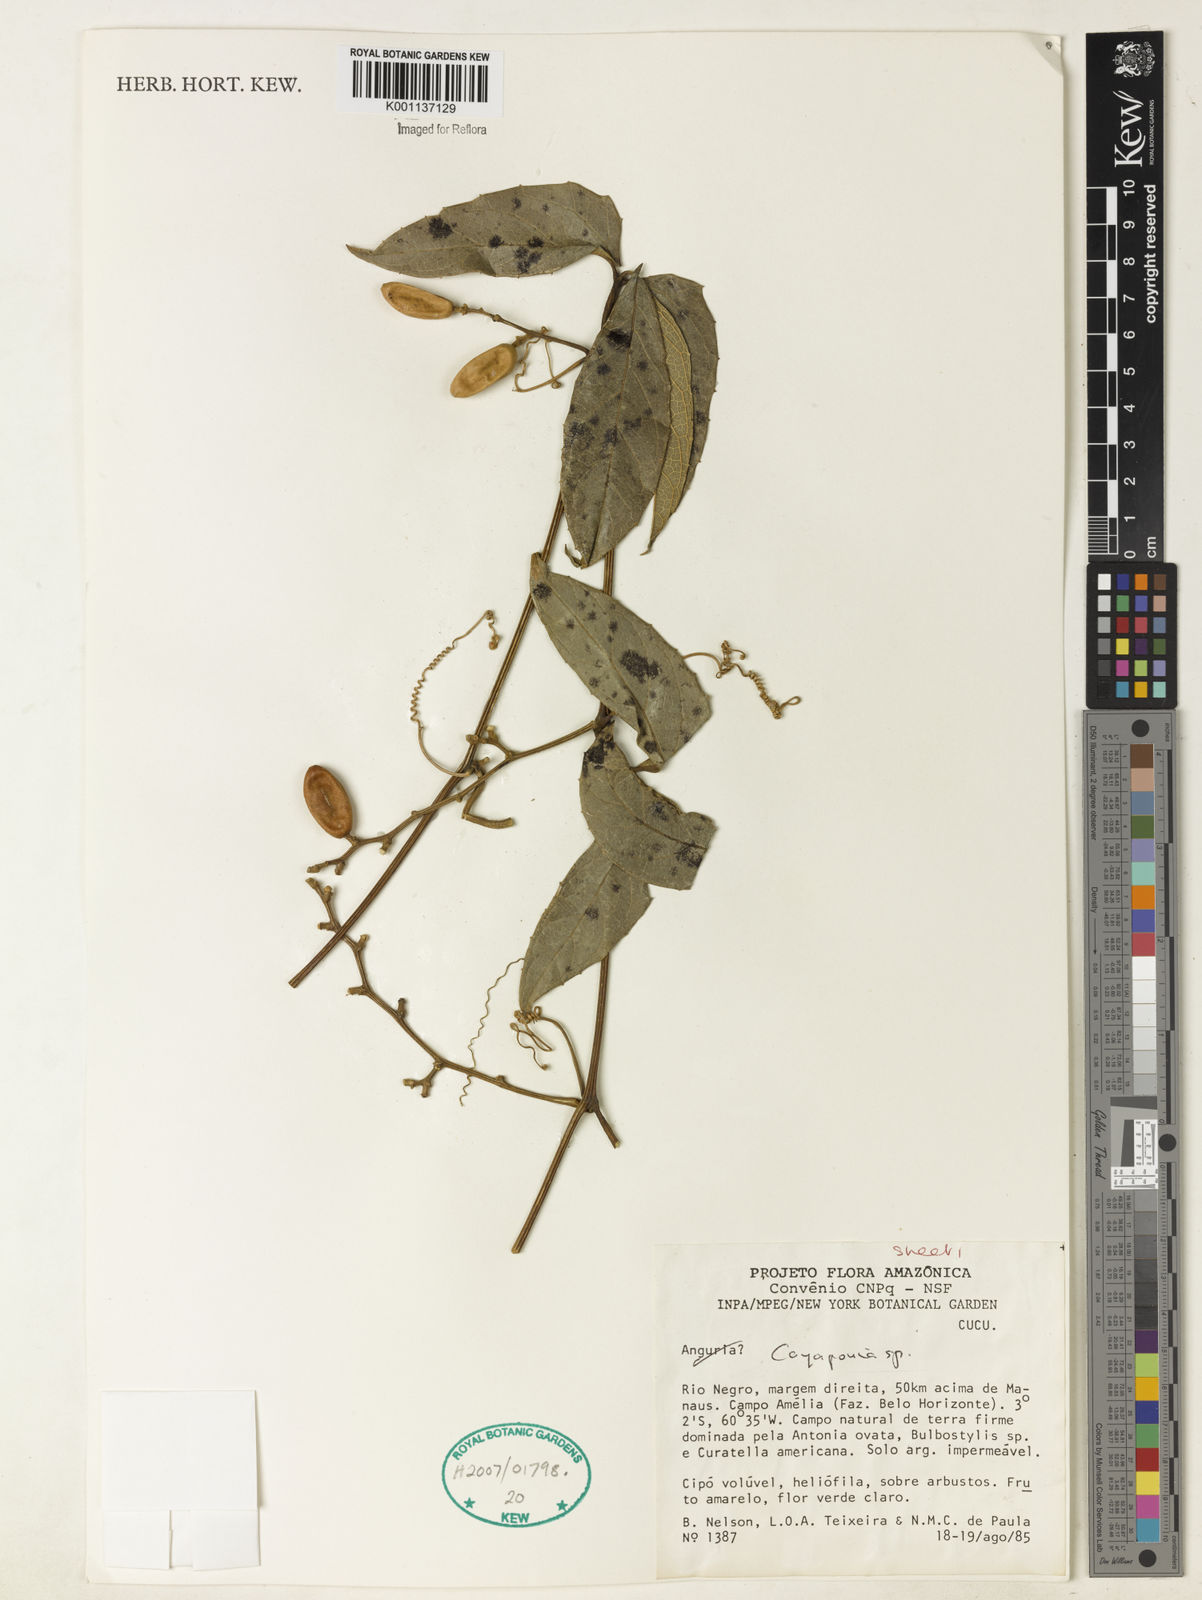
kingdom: Plantae
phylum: Tracheophyta
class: Magnoliopsida
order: Cucurbitales
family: Cucurbitaceae
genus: Cayaponia
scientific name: Cayaponia
